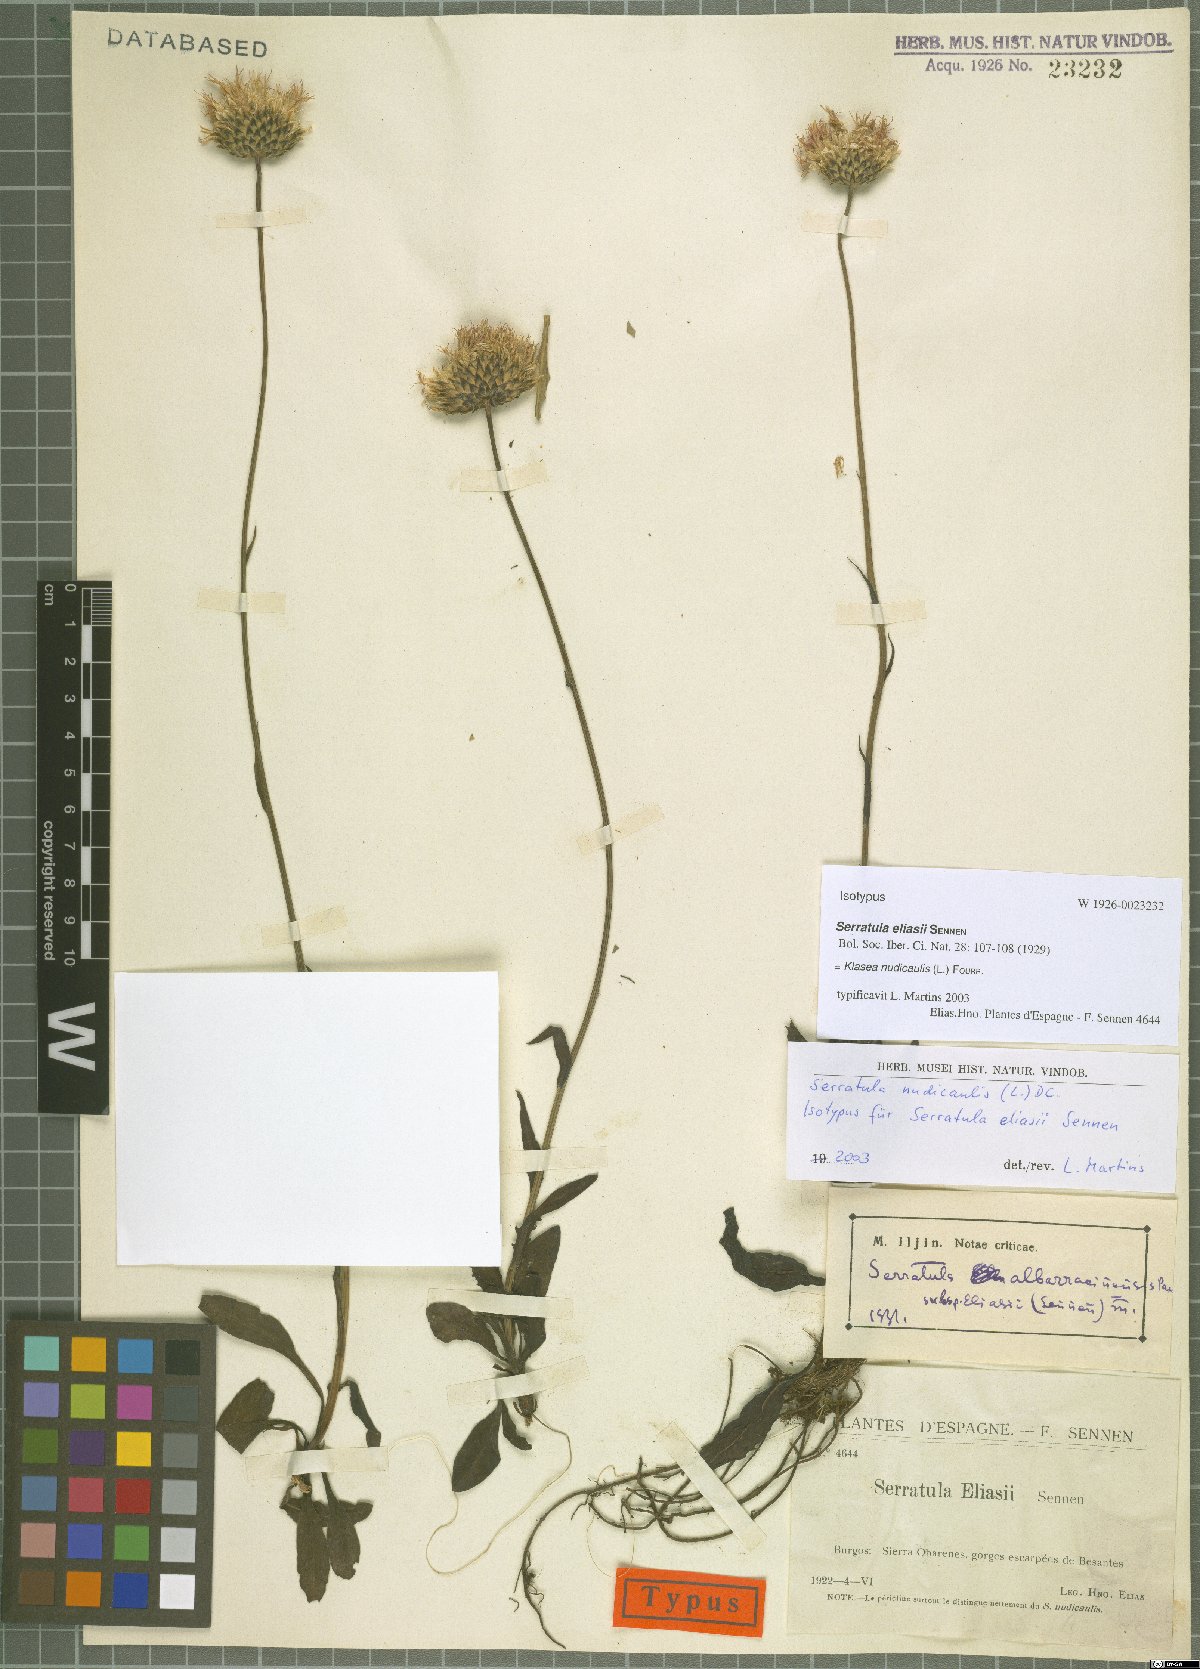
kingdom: Plantae
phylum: Tracheophyta
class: Magnoliopsida
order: Asterales
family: Asteraceae
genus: Klasea
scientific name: Klasea nudicaulis
